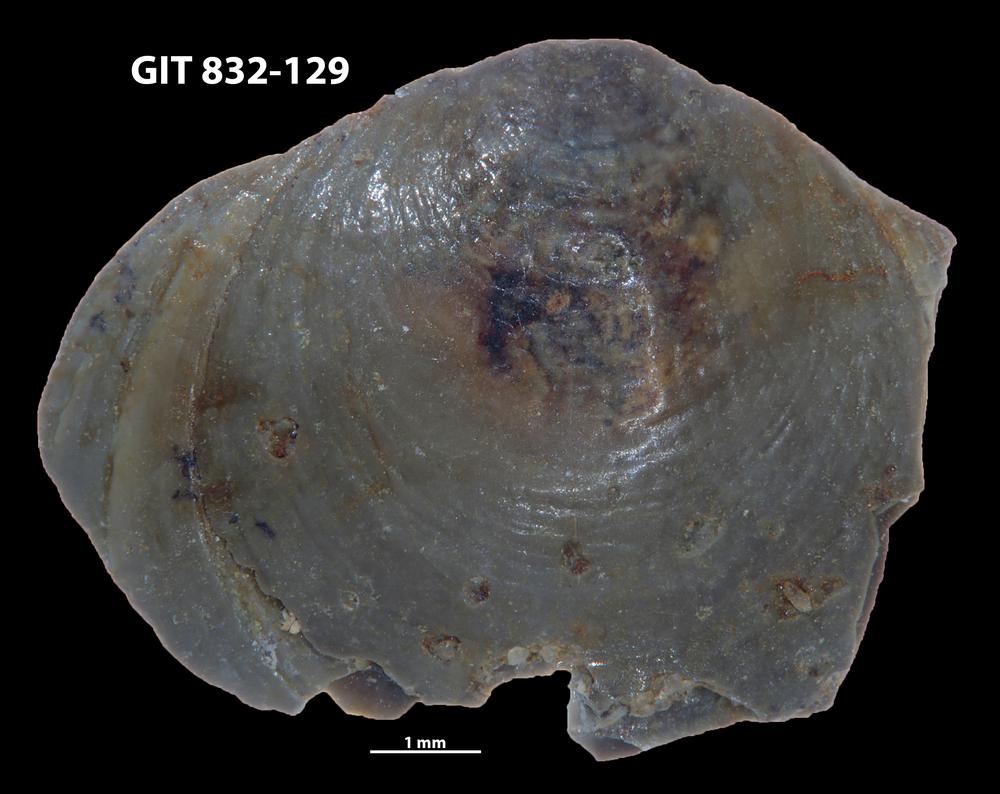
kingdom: Animalia
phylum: Brachiopoda
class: Lingulata
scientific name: Lingulata
